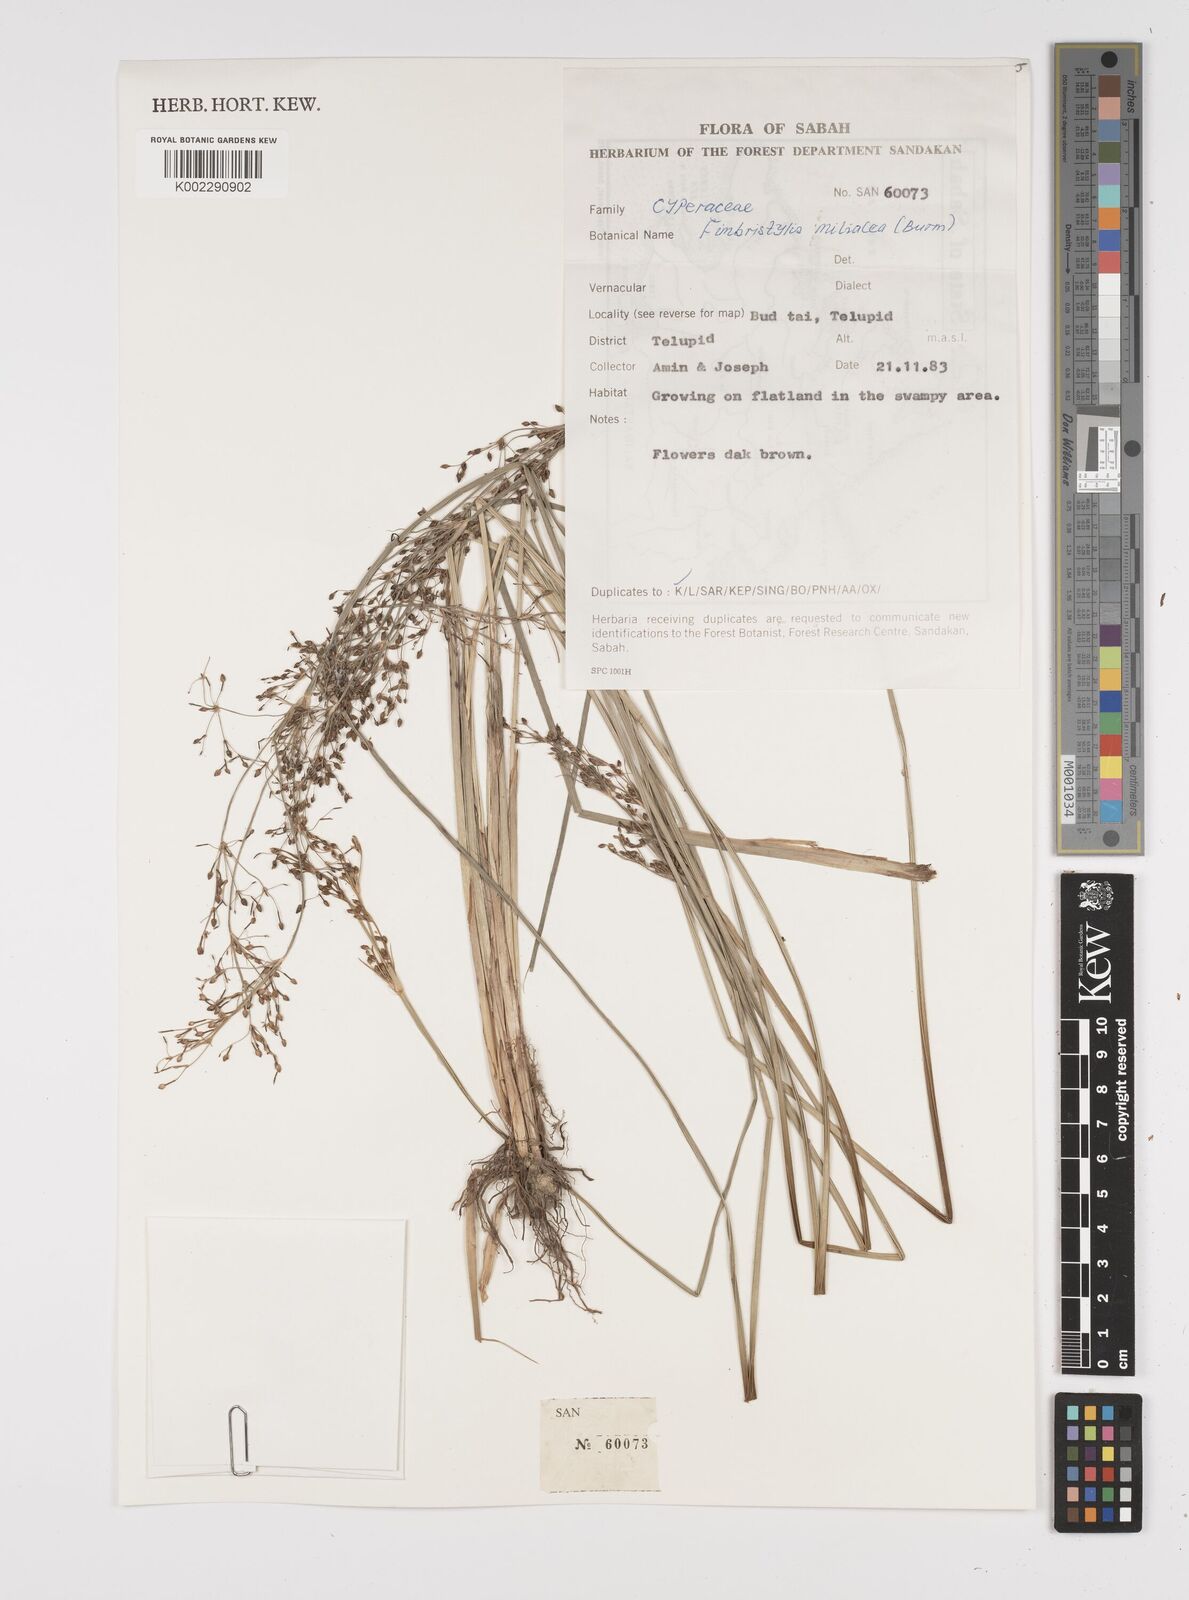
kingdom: Plantae
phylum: Tracheophyta
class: Liliopsida
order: Poales
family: Cyperaceae
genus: Fimbristylis
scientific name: Fimbristylis quinquangularis
